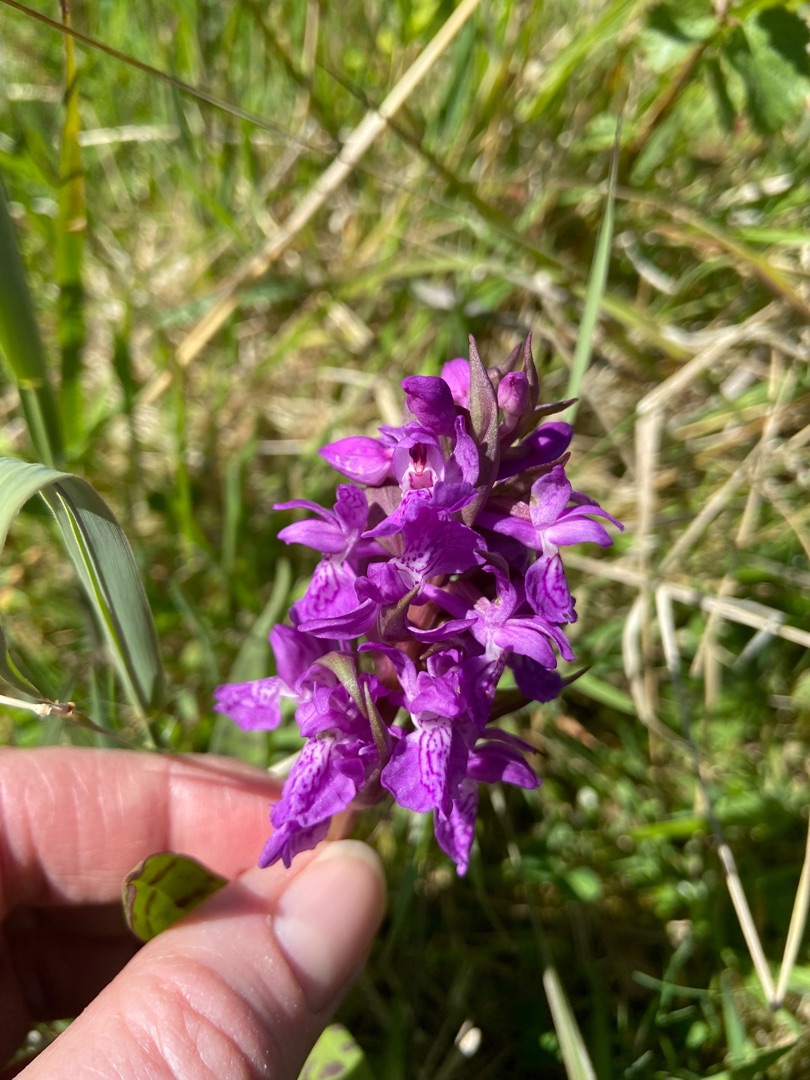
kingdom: Plantae
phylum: Tracheophyta
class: Liliopsida
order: Asparagales
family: Orchidaceae
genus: Dactylorhiza
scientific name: Dactylorhiza majalis
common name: Maj-gøgeurt
